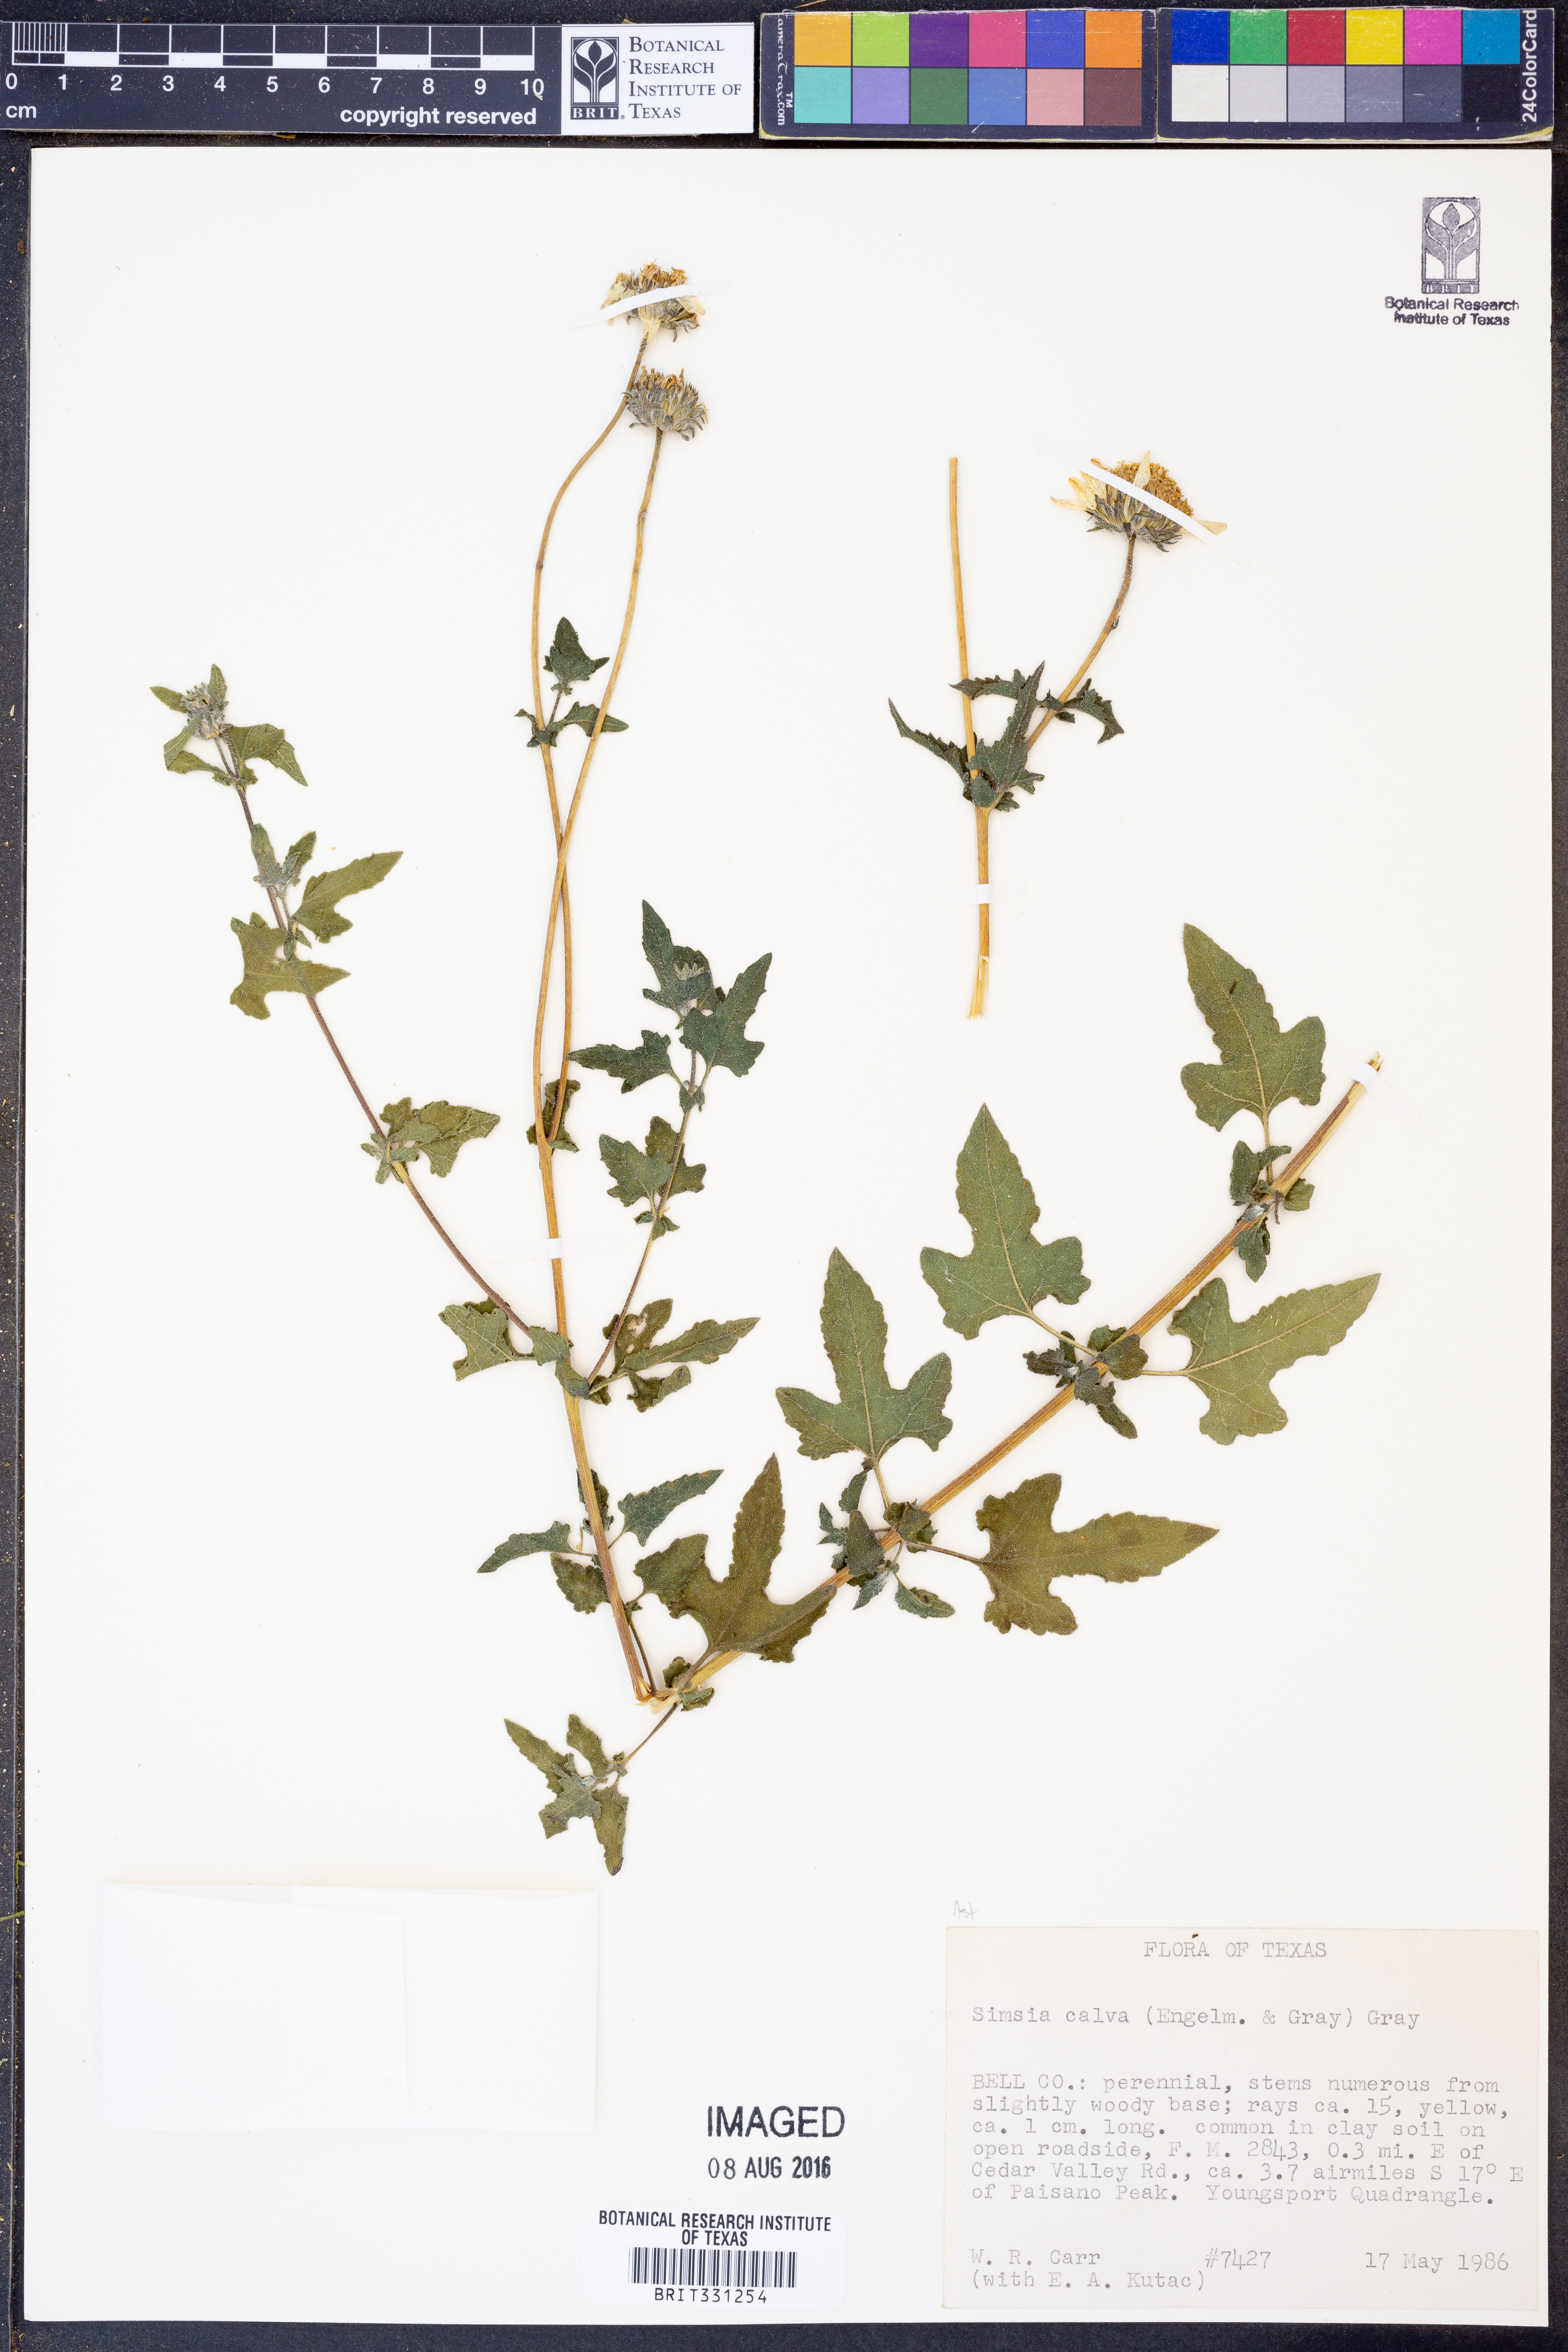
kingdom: Plantae
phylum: Tracheophyta
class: Magnoliopsida
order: Asterales
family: Asteraceae
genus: Simsia
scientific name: Simsia calva
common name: Awnless bush-sunflower
